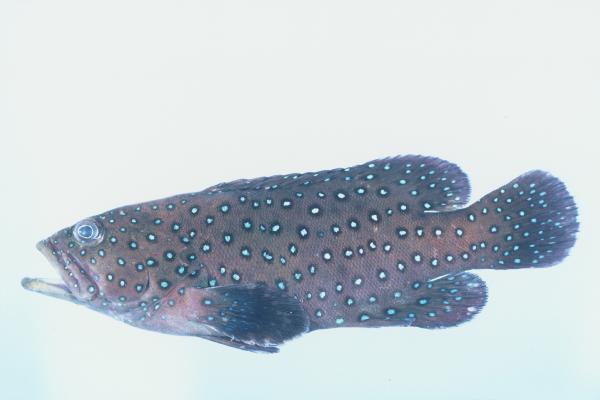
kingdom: Animalia
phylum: Chordata
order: Perciformes
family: Serranidae
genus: Cephalopholis
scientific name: Cephalopholis argus
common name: Peacock grouper
